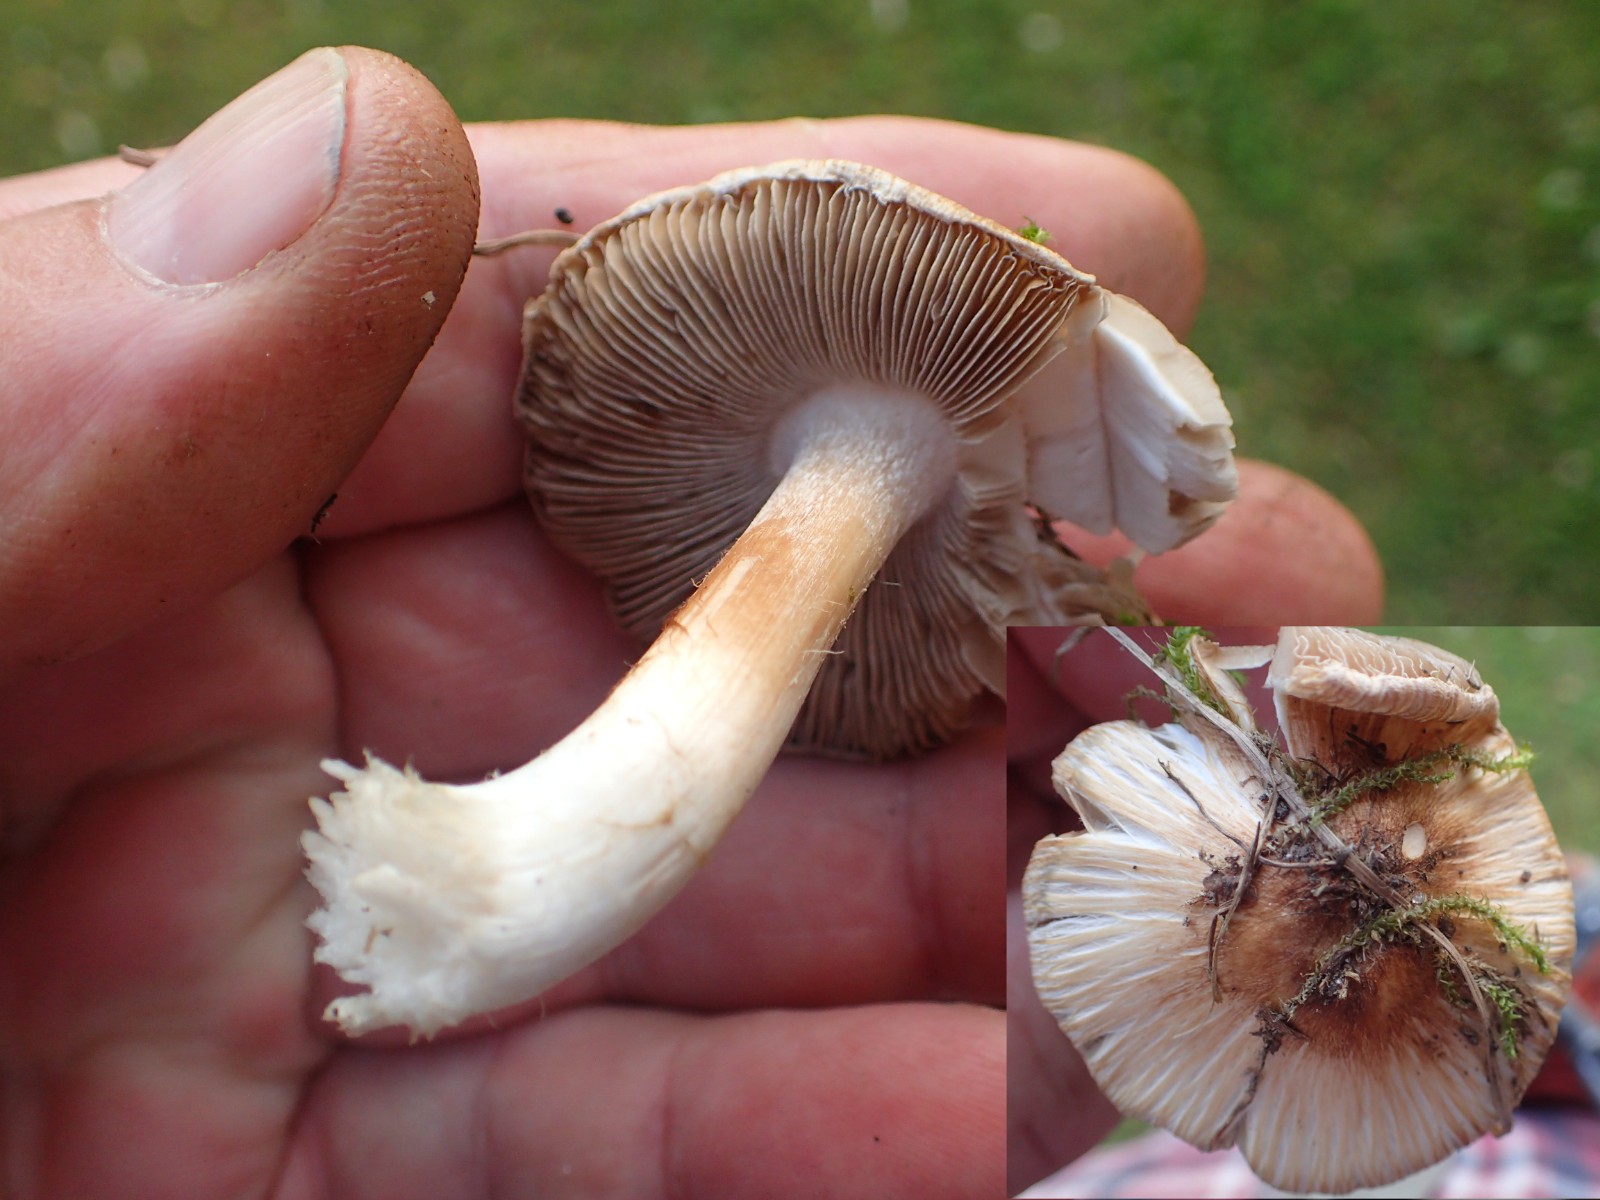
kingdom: Fungi
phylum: Basidiomycota
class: Agaricomycetes
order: Agaricales
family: Inocybaceae
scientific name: Inocybaceae
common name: trævlhatfamilien
